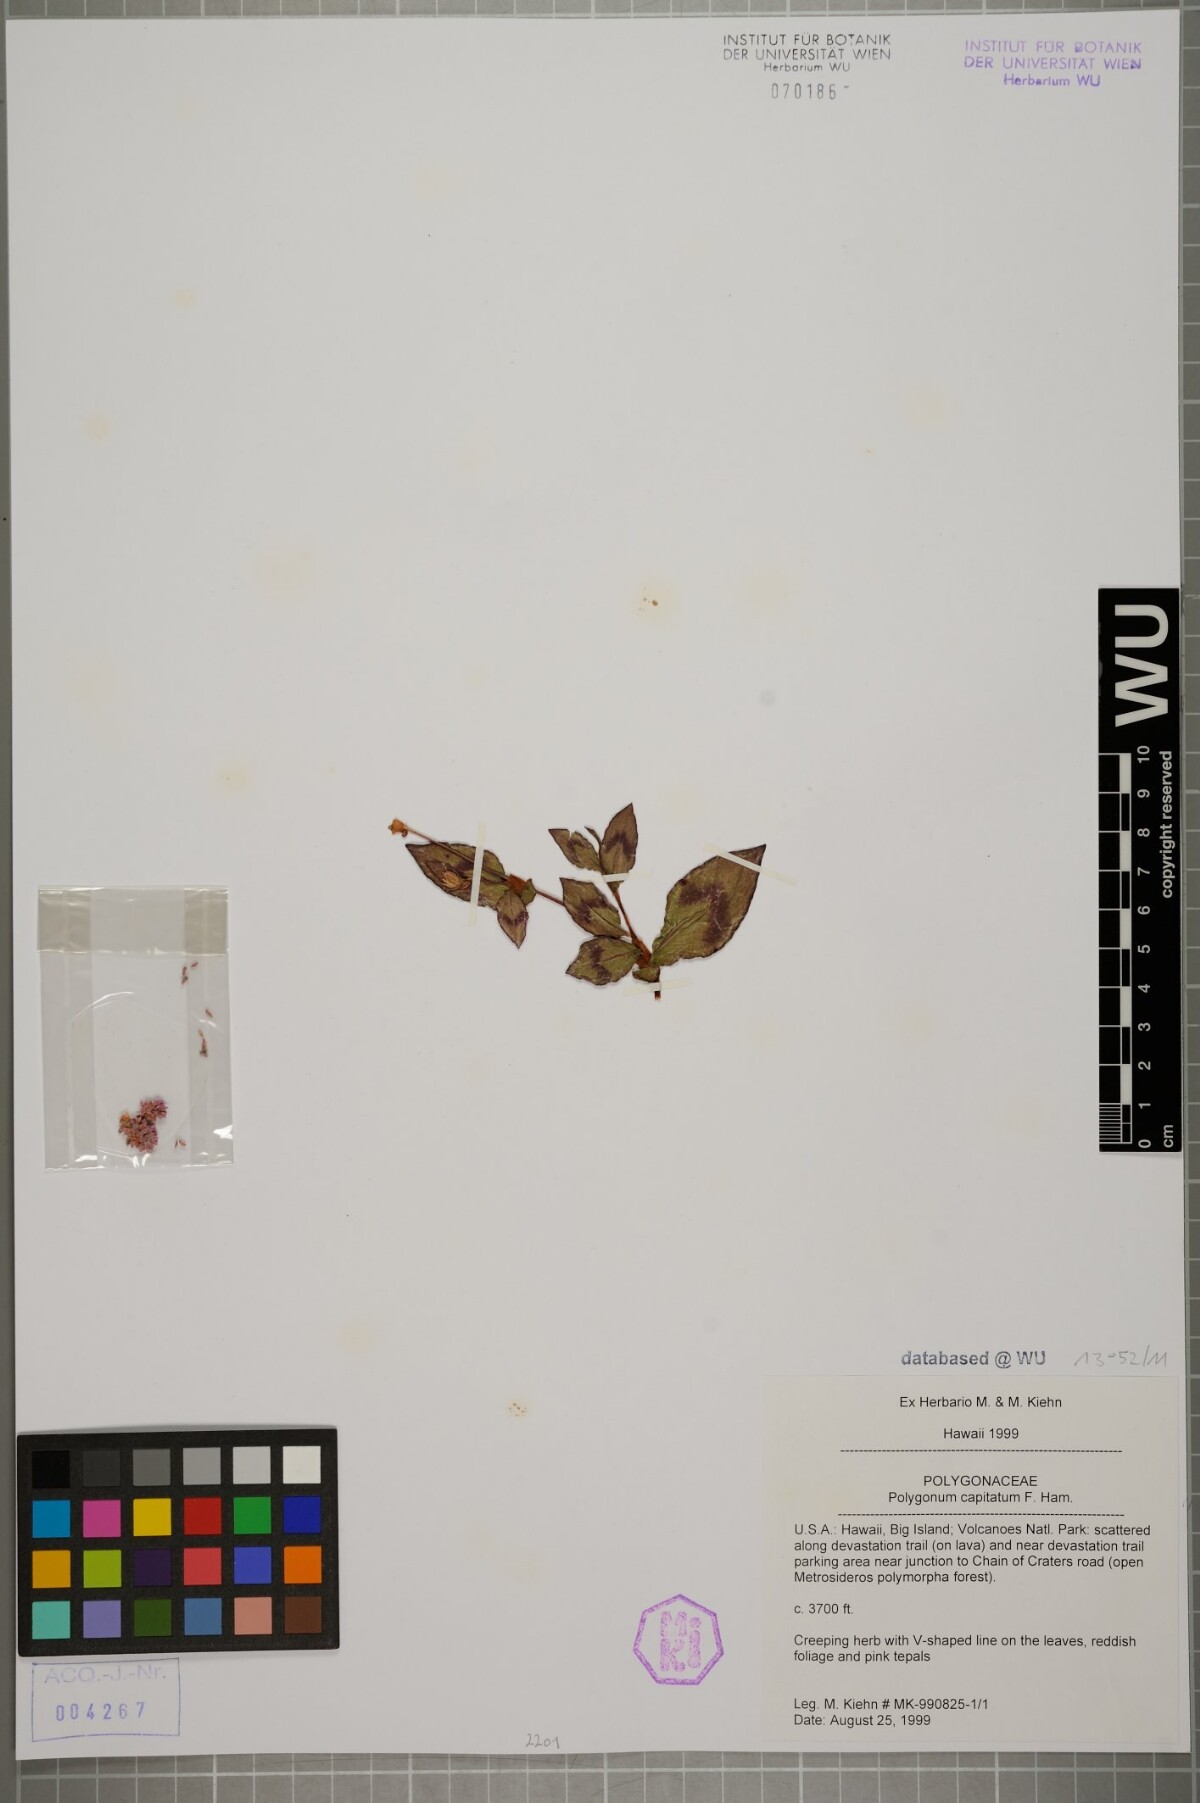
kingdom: Plantae
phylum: Tracheophyta
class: Magnoliopsida
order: Caryophyllales
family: Polygonaceae
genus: Persicaria
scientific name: Persicaria capitata
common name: Pinkhead smartweed
